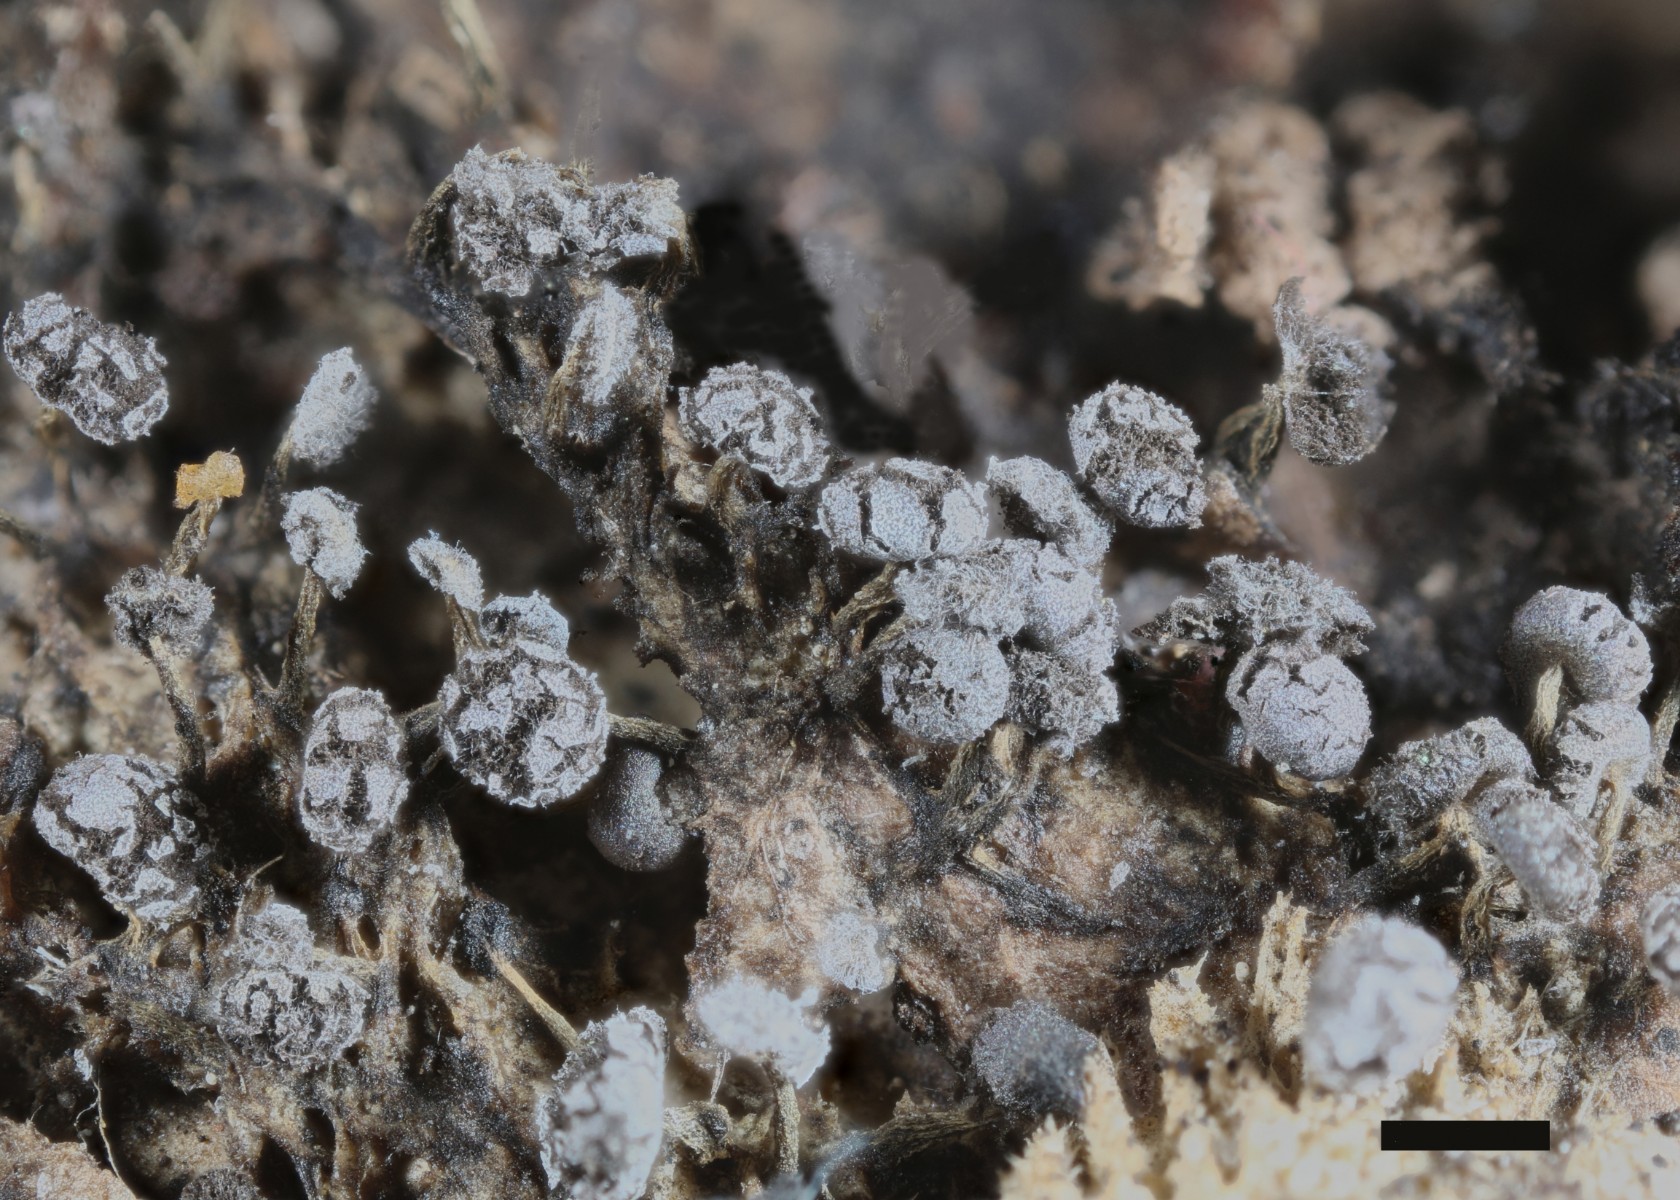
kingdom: Protozoa
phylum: Mycetozoa
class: Myxomycetes
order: Physarales
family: Physaraceae
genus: Physarum
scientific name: Physarum album
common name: nikkende støvknop
